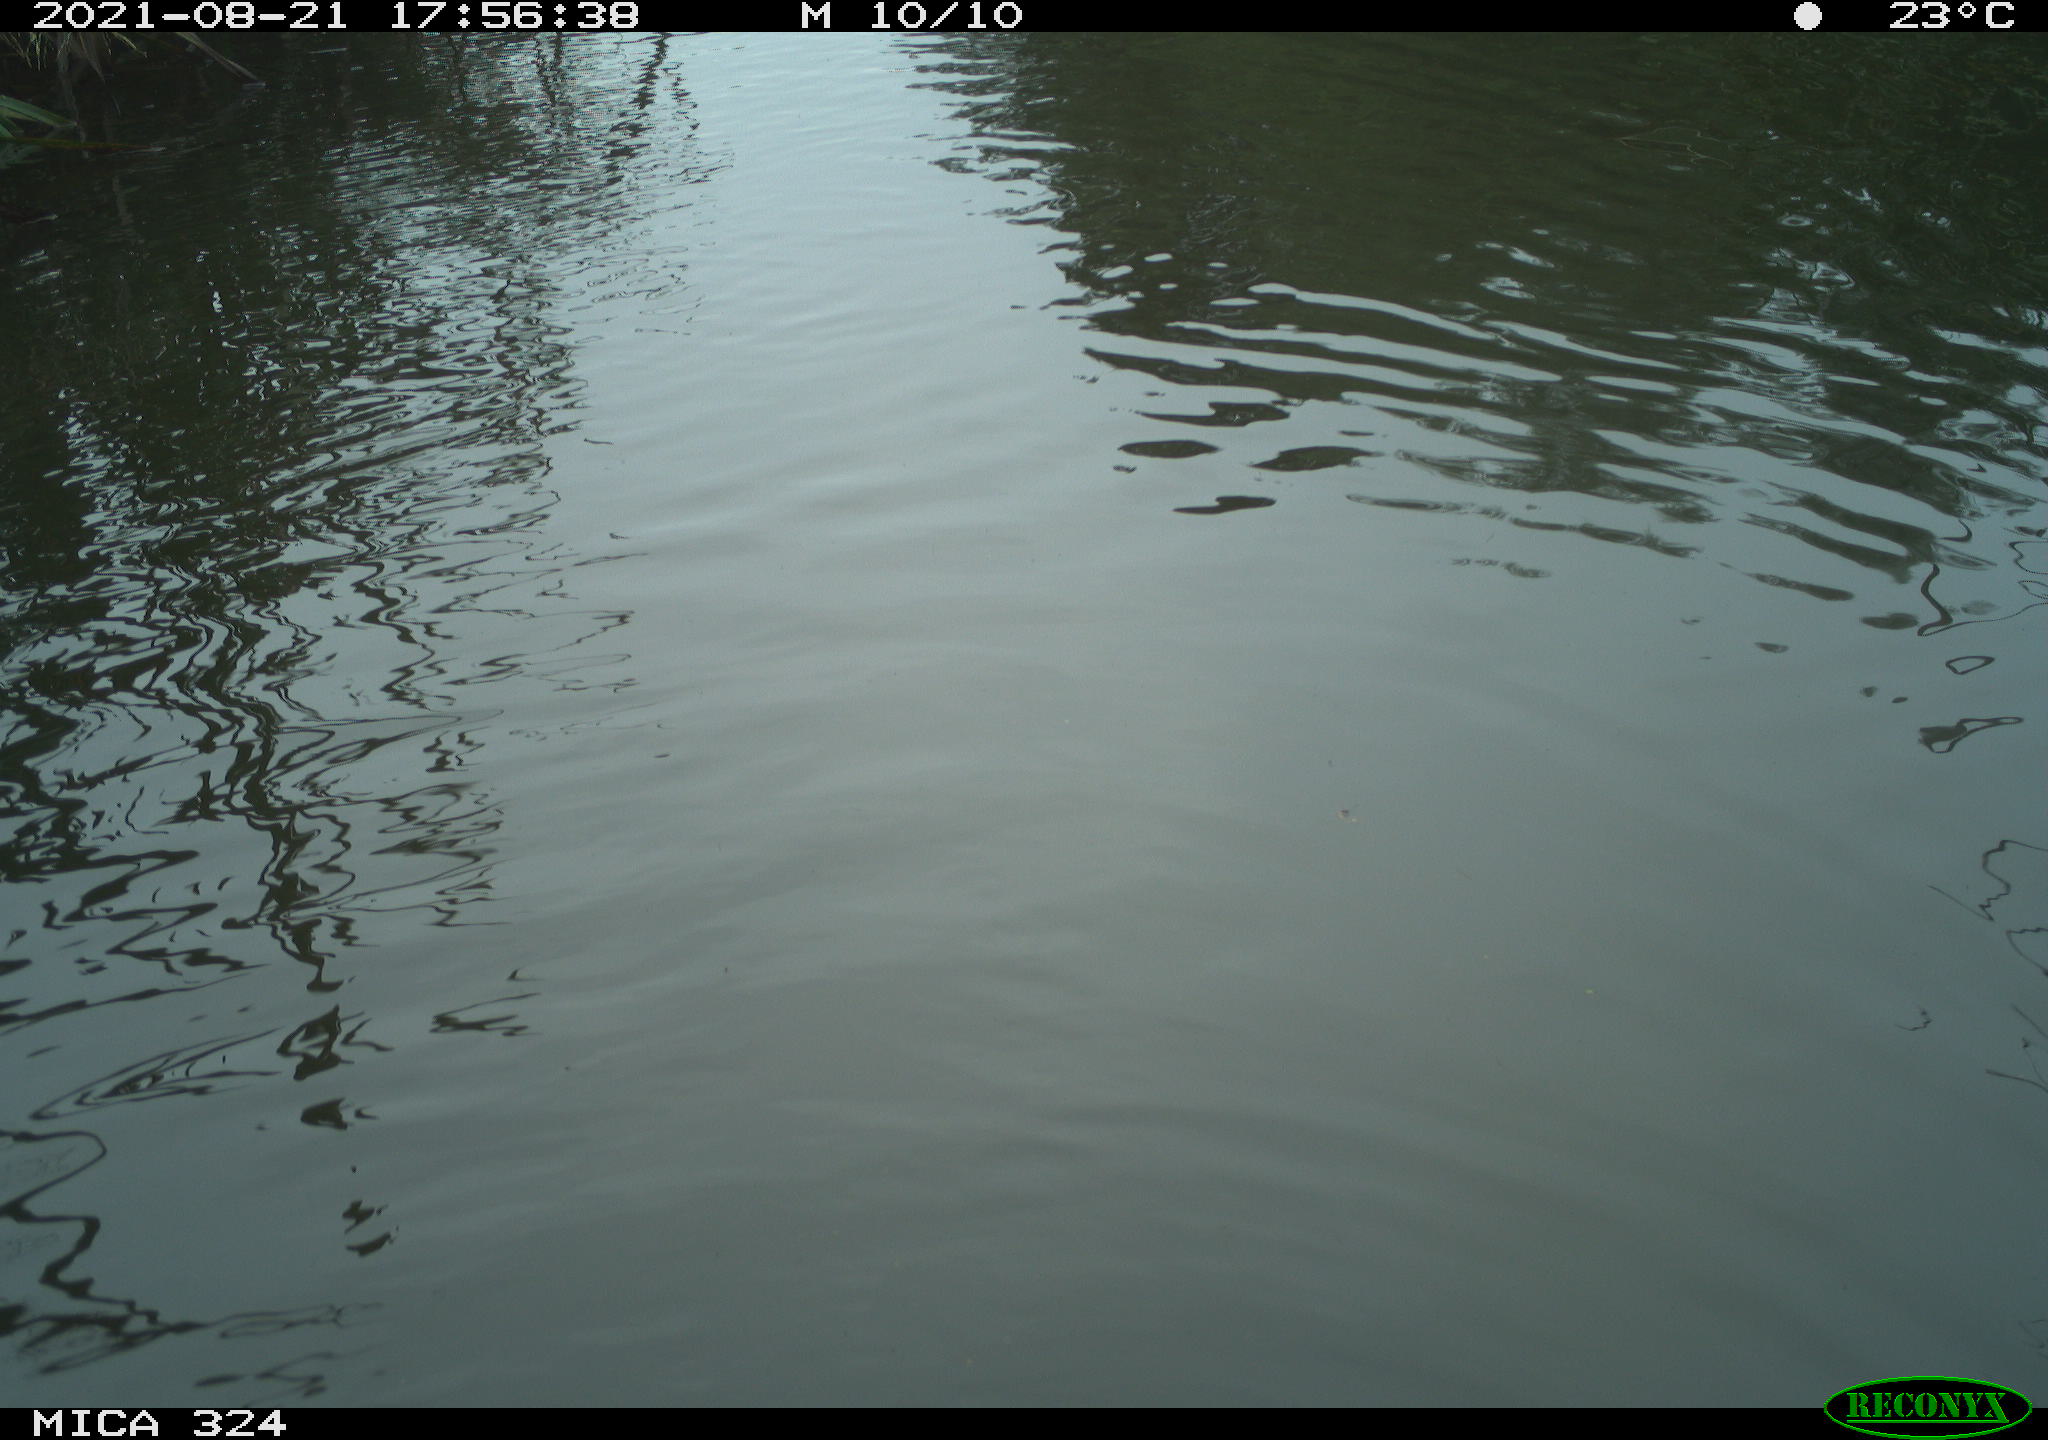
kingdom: Animalia
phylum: Chordata
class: Mammalia
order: Rodentia
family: Cricetidae
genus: Ondatra
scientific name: Ondatra zibethicus
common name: Muskrat
